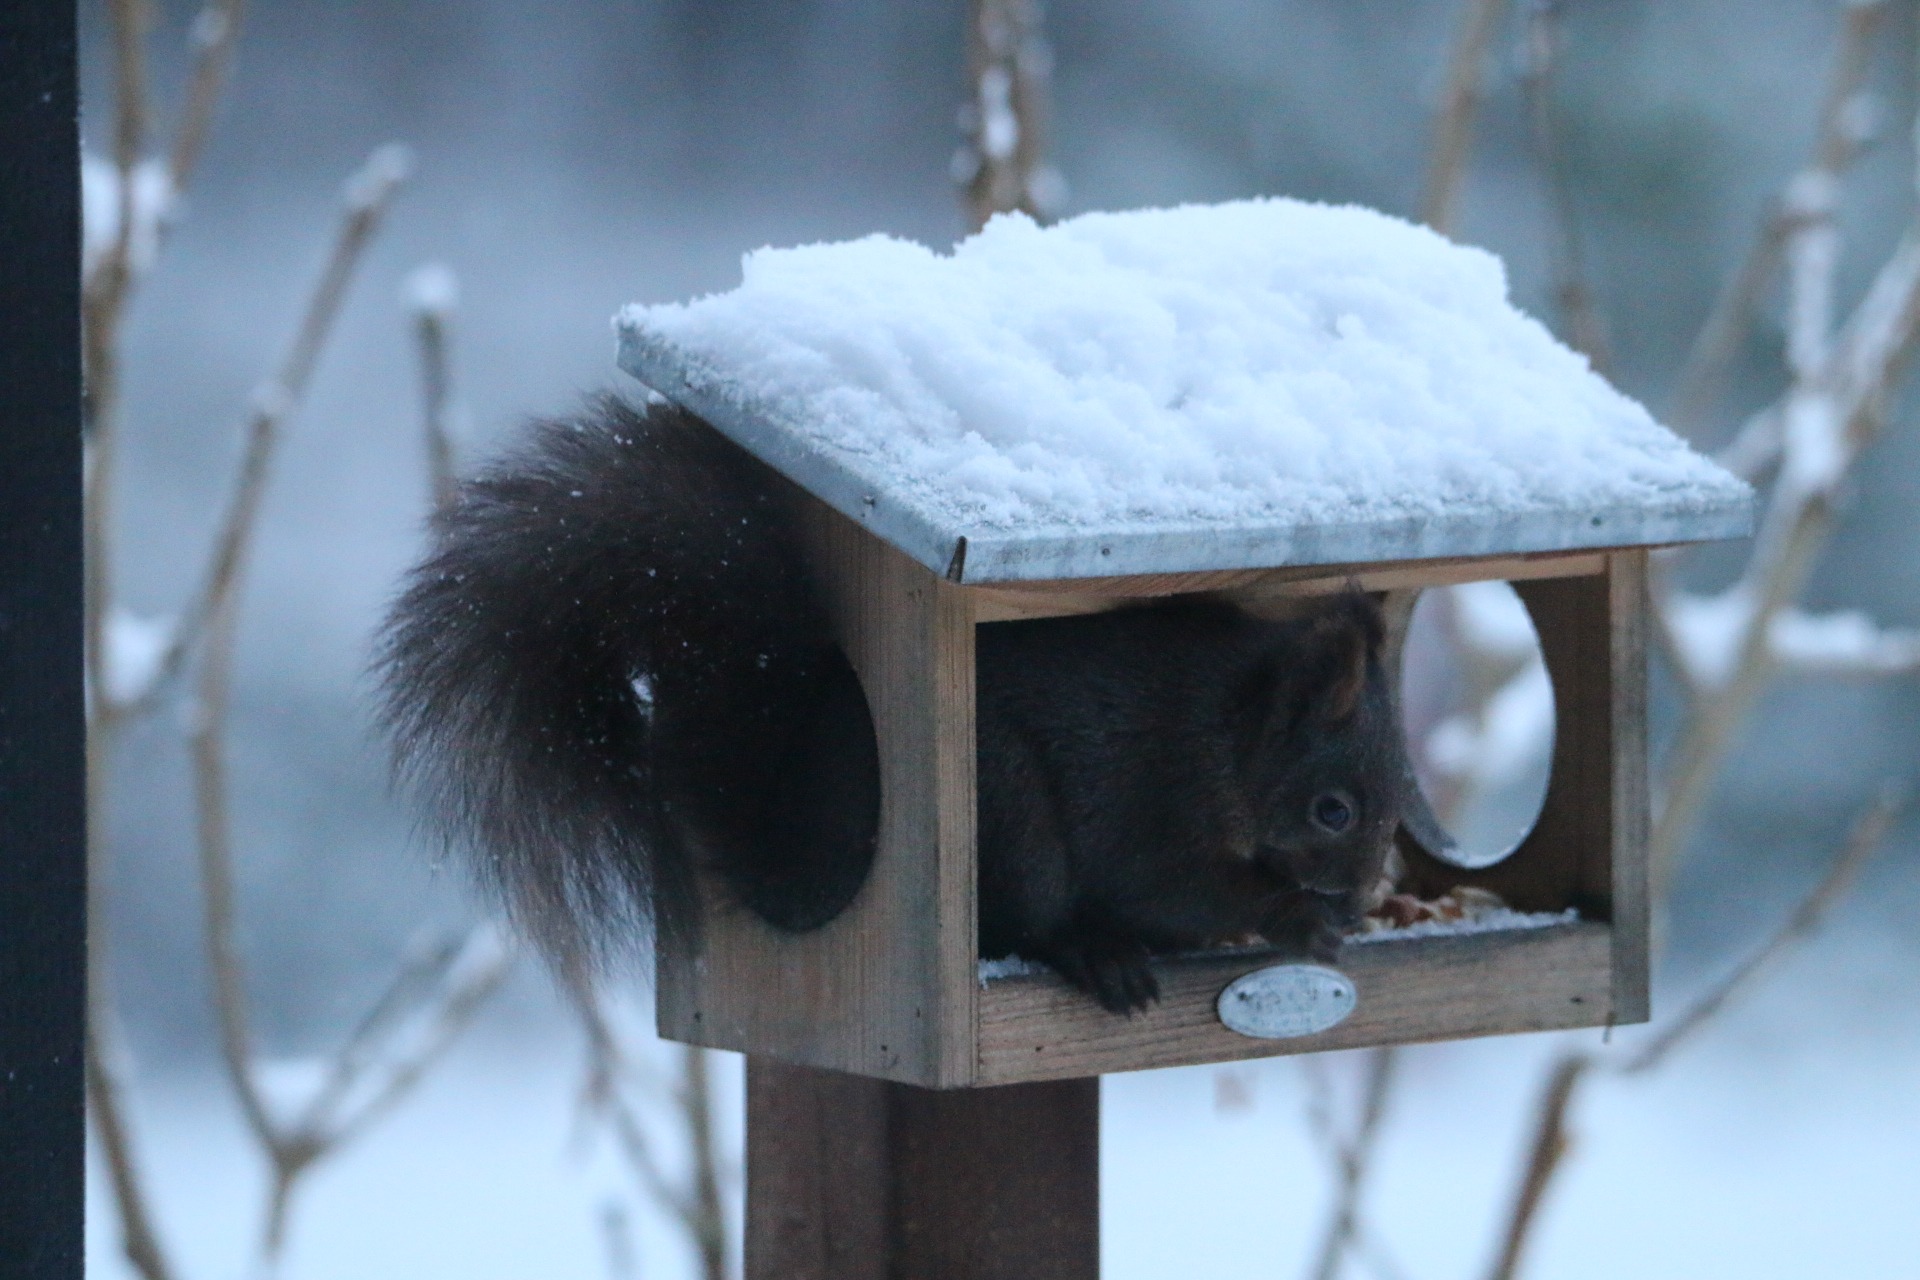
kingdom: Animalia
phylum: Chordata
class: Mammalia
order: Rodentia
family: Sciuridae
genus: Sciurus
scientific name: Sciurus vulgaris
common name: Egern
